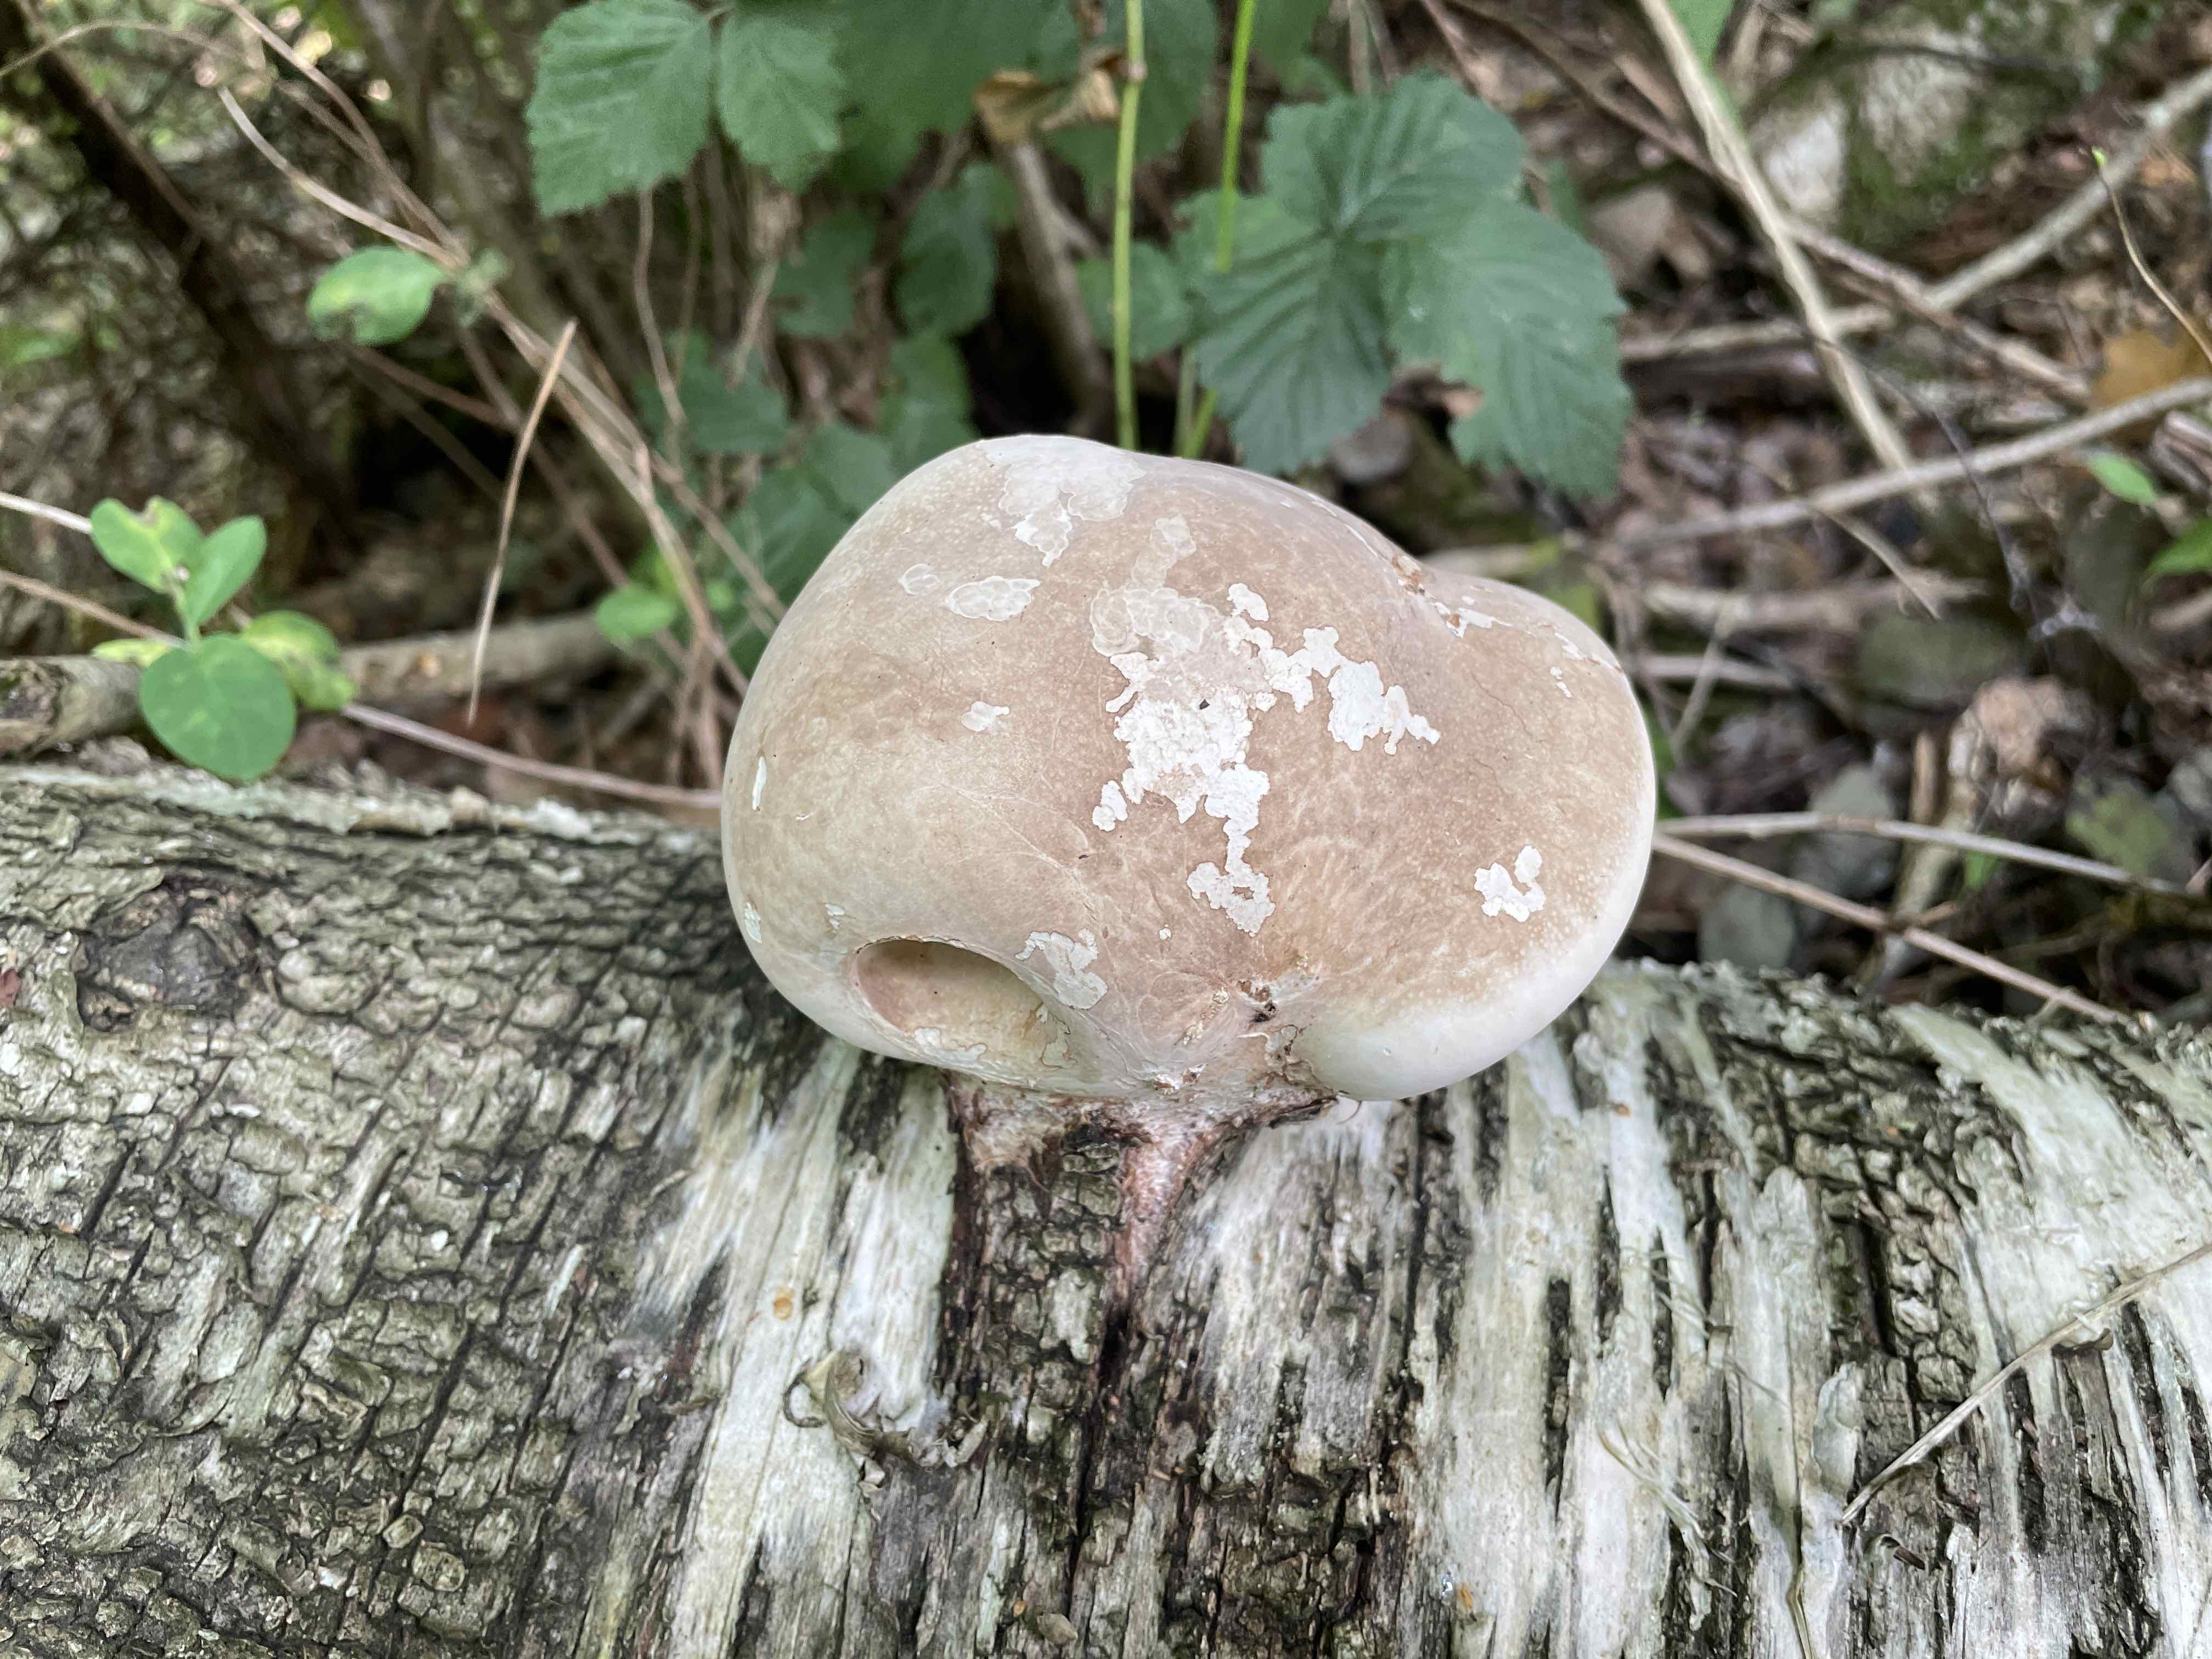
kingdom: Fungi
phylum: Basidiomycota
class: Agaricomycetes
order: Polyporales
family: Fomitopsidaceae
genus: Fomitopsis
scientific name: Fomitopsis betulina
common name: birkeporesvamp
